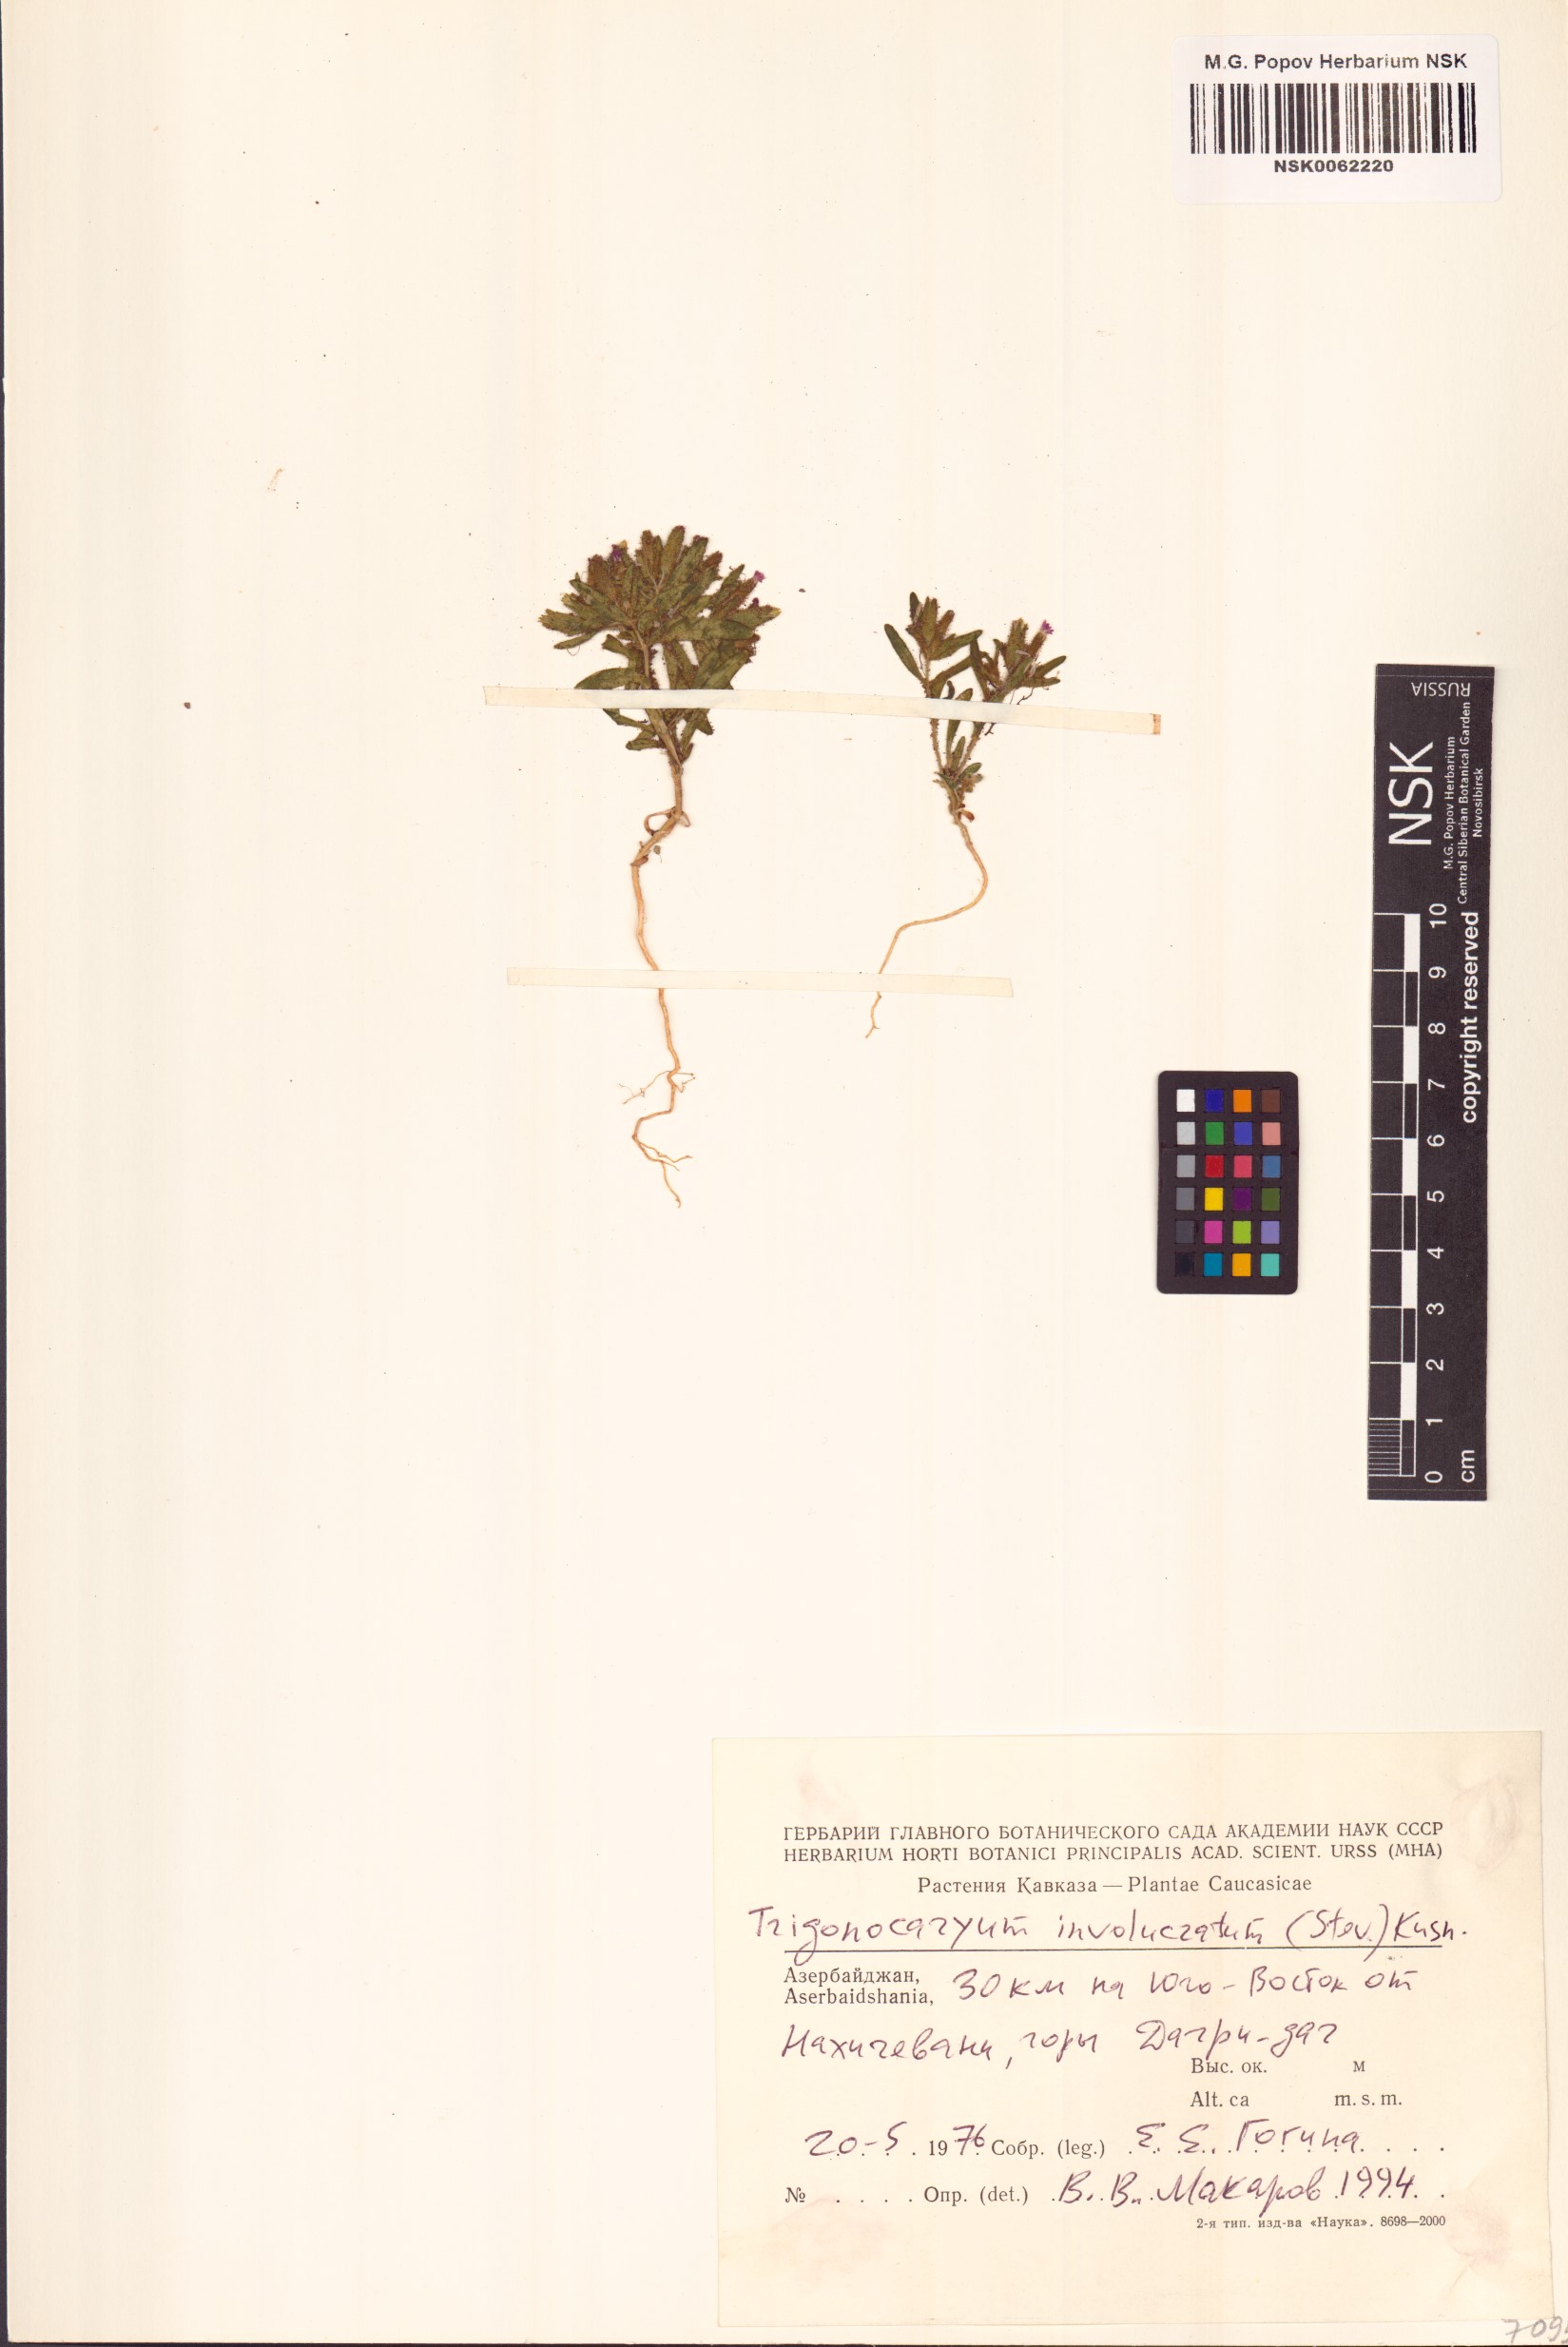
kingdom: Plantae
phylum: Tracheophyta
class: Magnoliopsida
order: Boraginales
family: Boraginaceae
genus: Myosotis
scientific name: Myosotis involucrata
